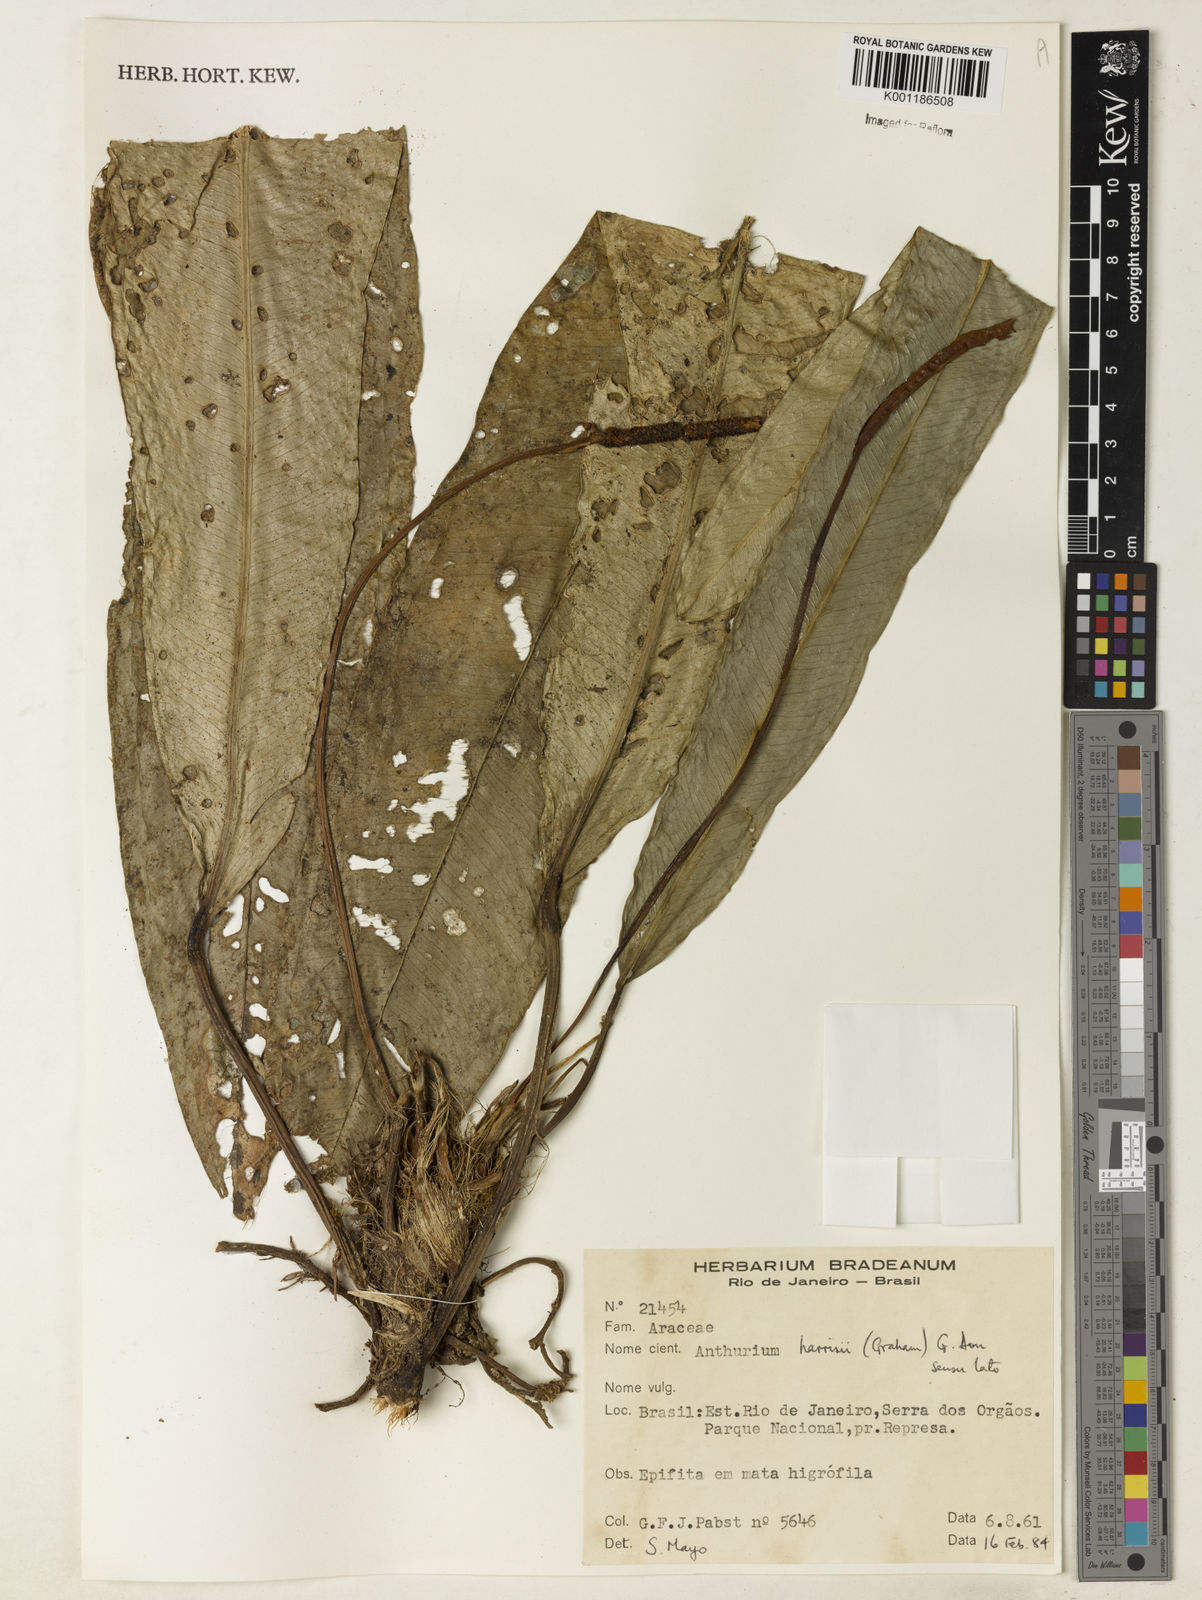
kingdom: Plantae
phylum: Tracheophyta
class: Liliopsida
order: Alismatales
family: Araceae
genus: Anthurium
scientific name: Anthurium harrisii
